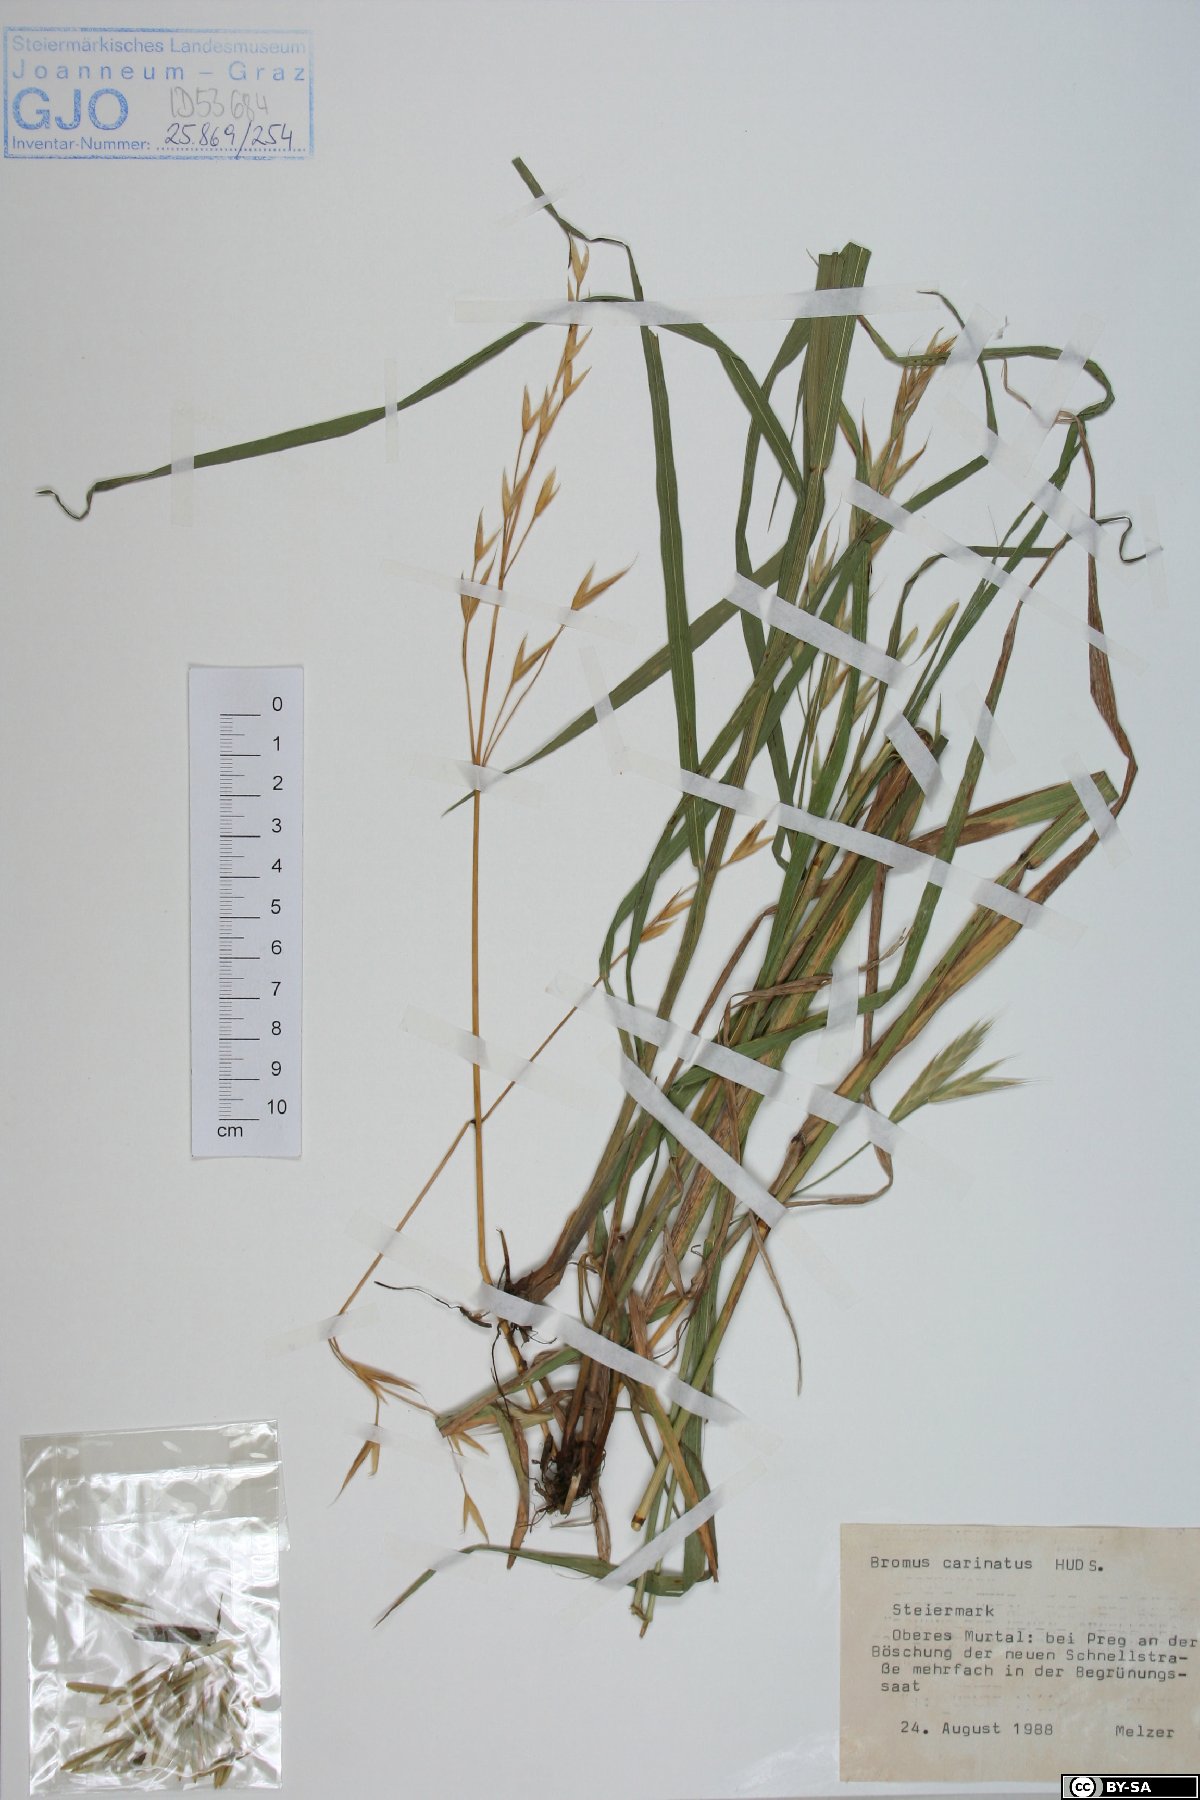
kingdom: Plantae
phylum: Tracheophyta
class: Liliopsida
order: Poales
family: Poaceae
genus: Bromus
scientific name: Bromus carinatus
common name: Mountain brome
